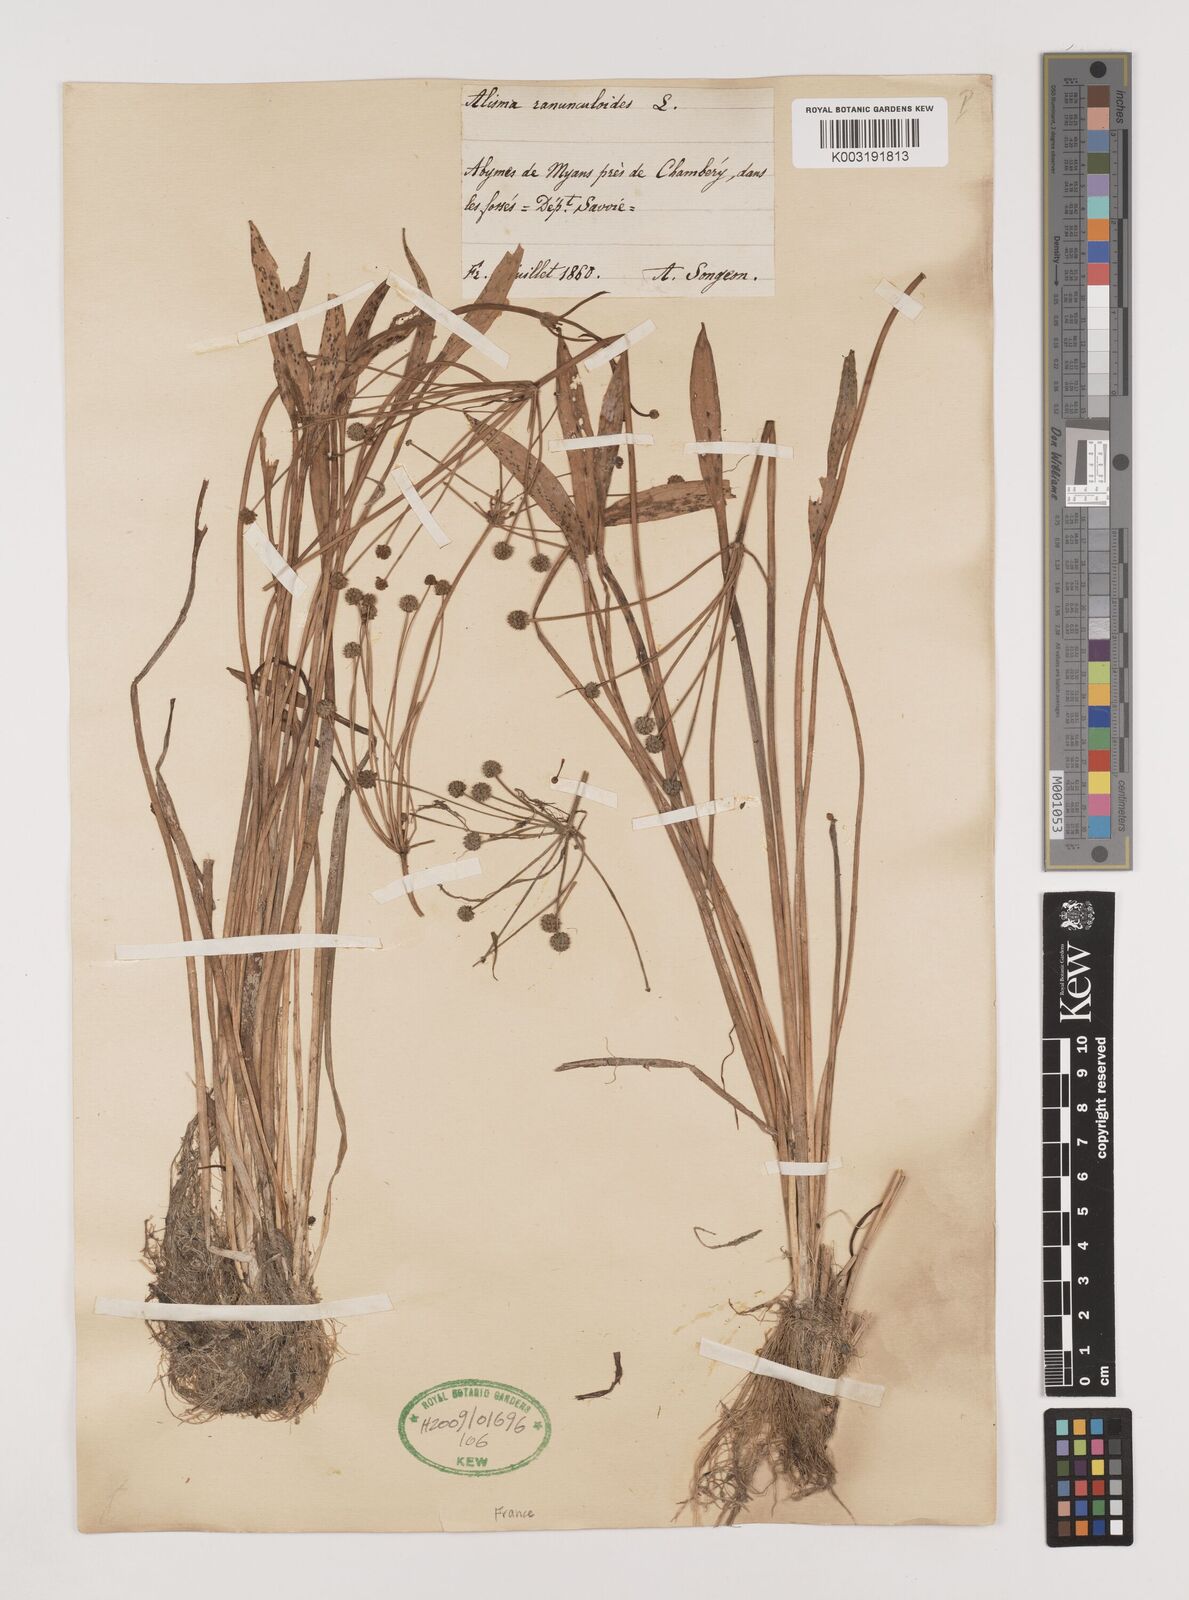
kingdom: Plantae
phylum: Tracheophyta
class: Liliopsida
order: Alismatales
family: Alismataceae
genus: Baldellia
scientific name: Baldellia ranunculoides
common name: Lesser water-plantain
